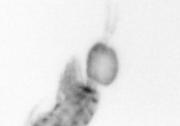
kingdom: Animalia
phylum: Arthropoda
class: Copepoda
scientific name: Copepoda
